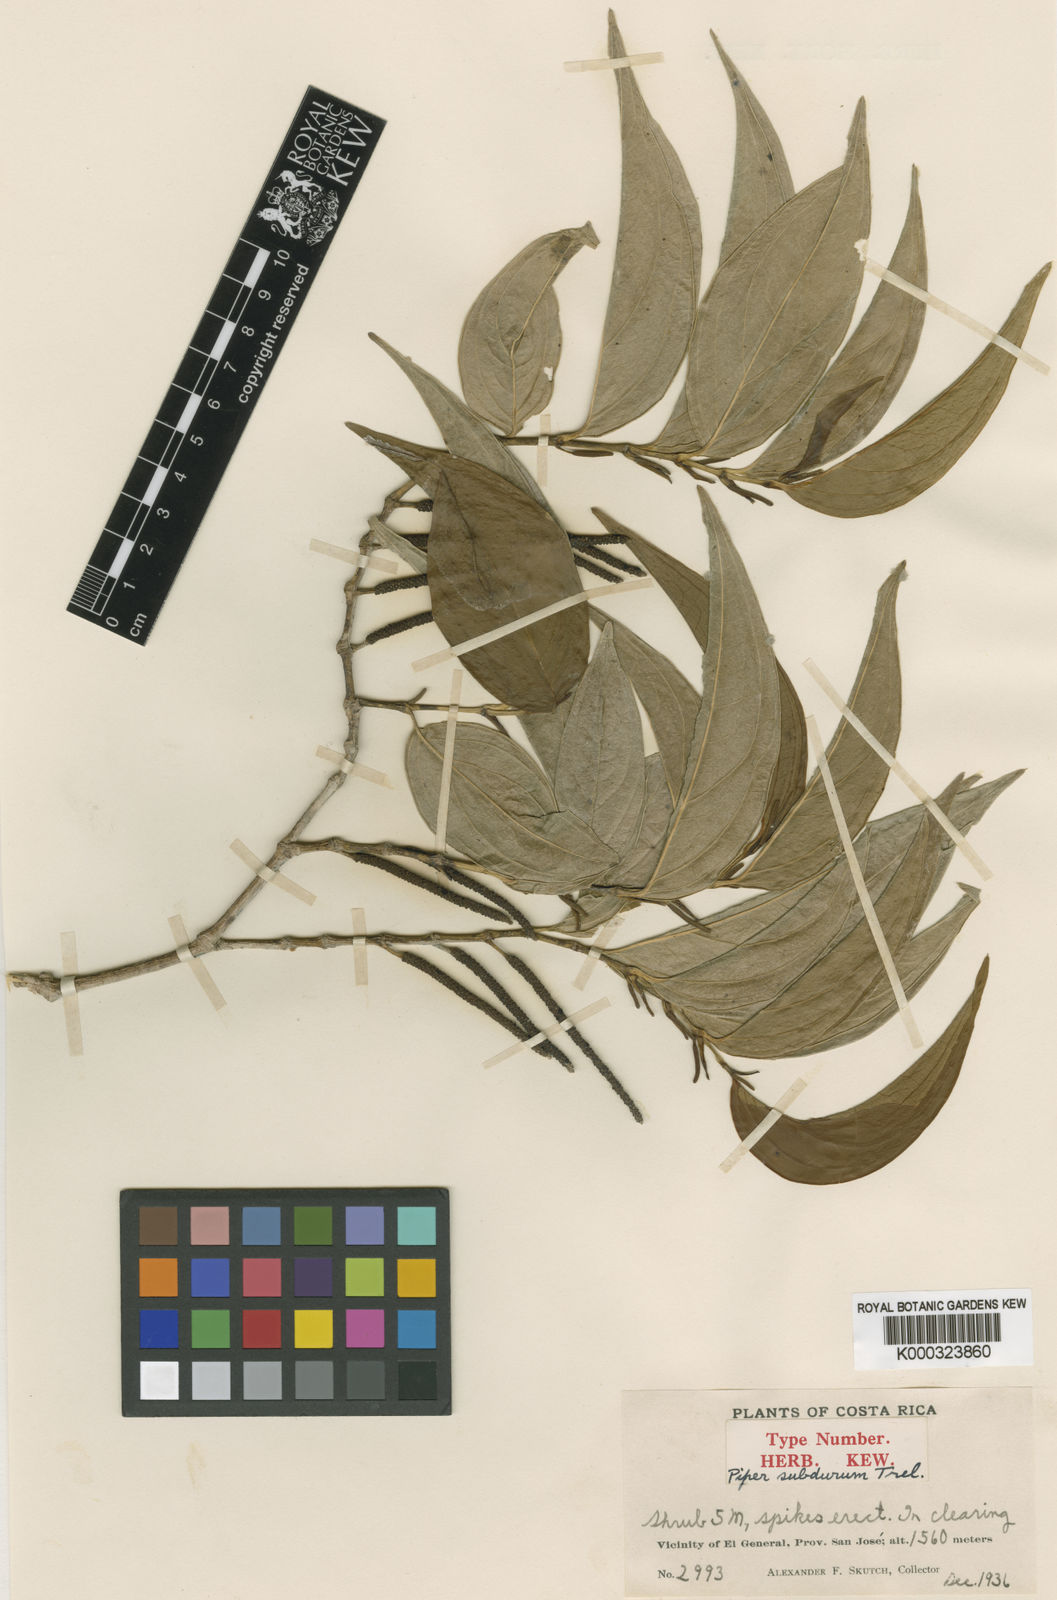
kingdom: Plantae
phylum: Tracheophyta
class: Magnoliopsida
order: Piperales
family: Piperaceae
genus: Piper
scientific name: Piper
